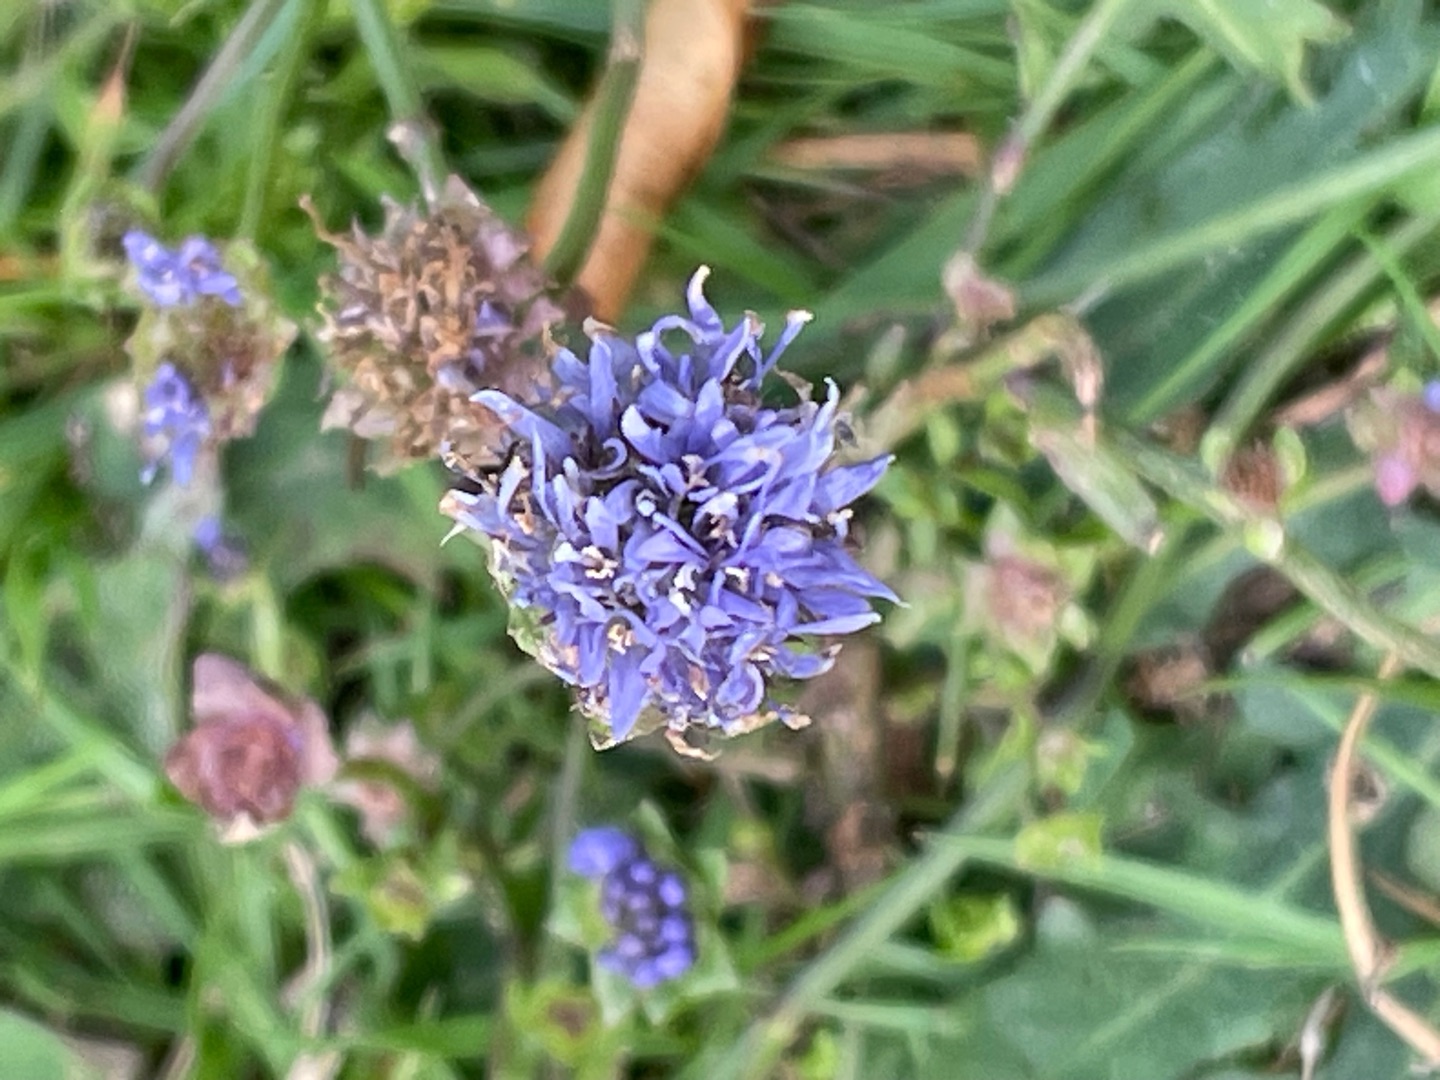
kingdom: Plantae
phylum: Tracheophyta
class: Magnoliopsida
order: Asterales
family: Campanulaceae
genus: Jasione
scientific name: Jasione montana
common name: Blåmunke
